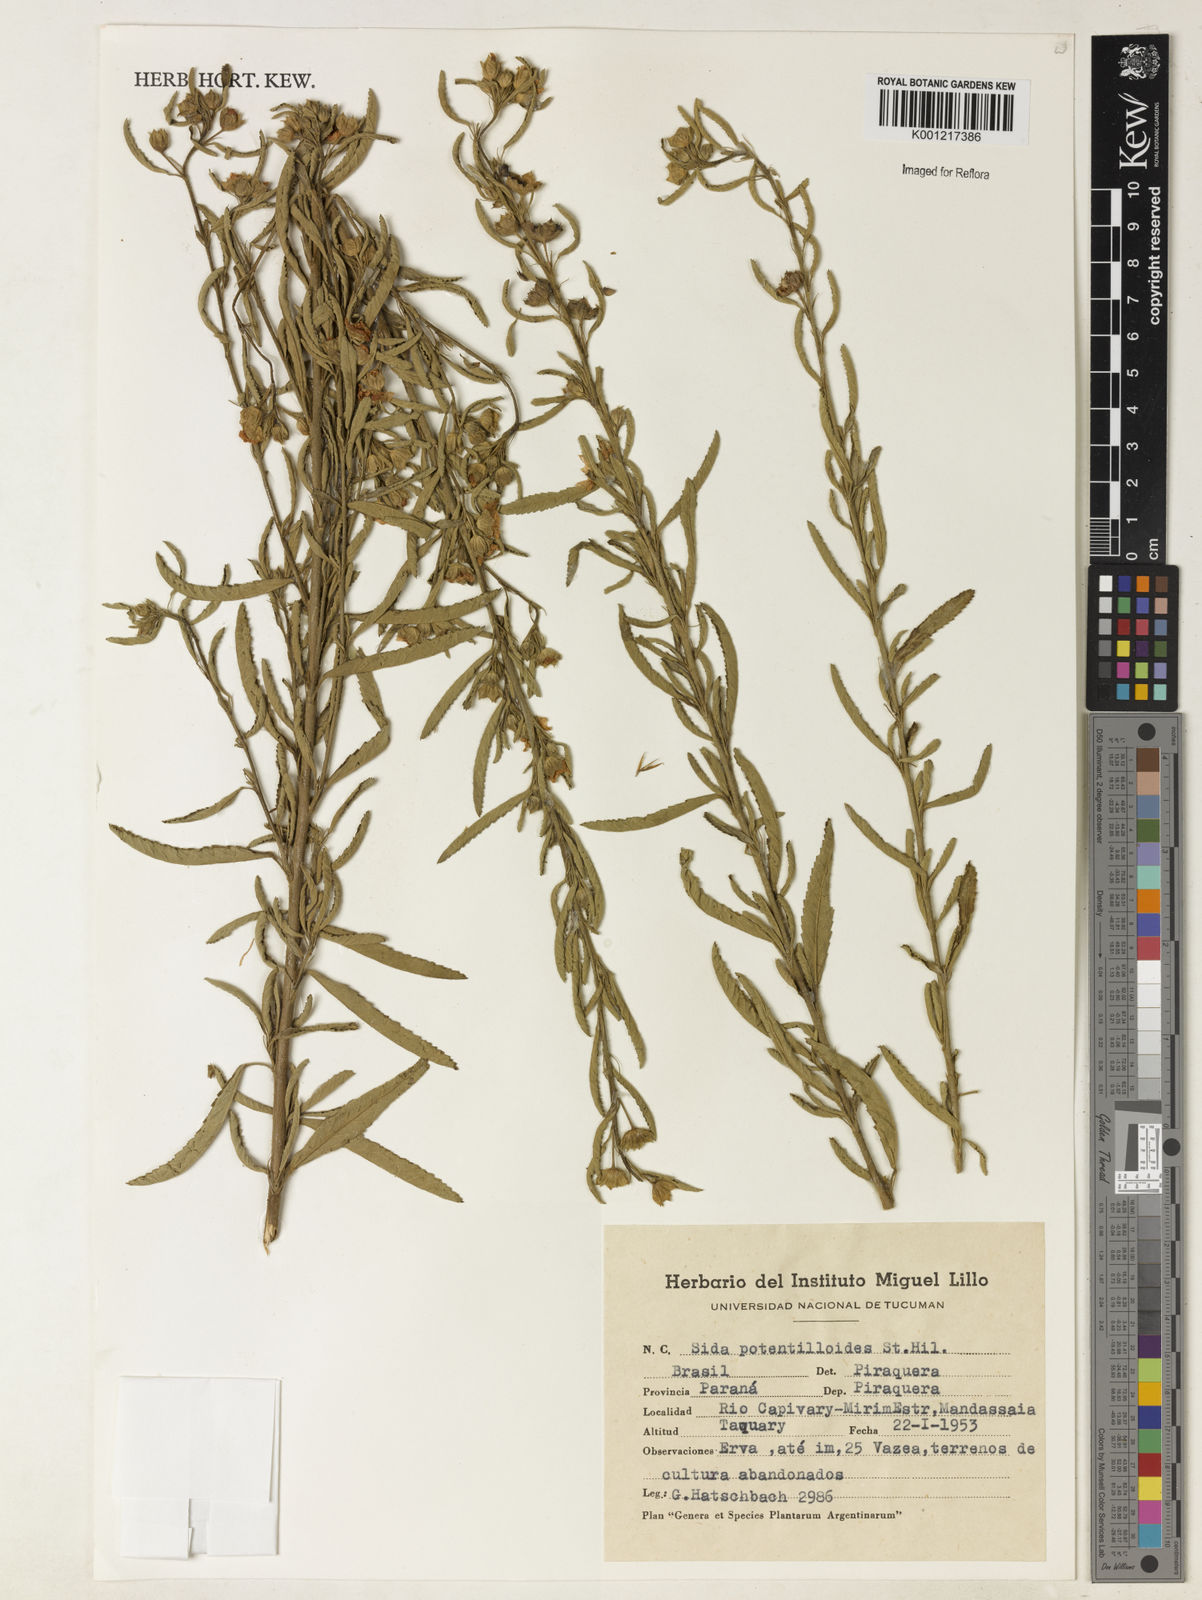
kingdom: Plantae
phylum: Tracheophyta
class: Magnoliopsida
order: Malvales
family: Malvaceae
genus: Sida
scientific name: Sida potentilloides
